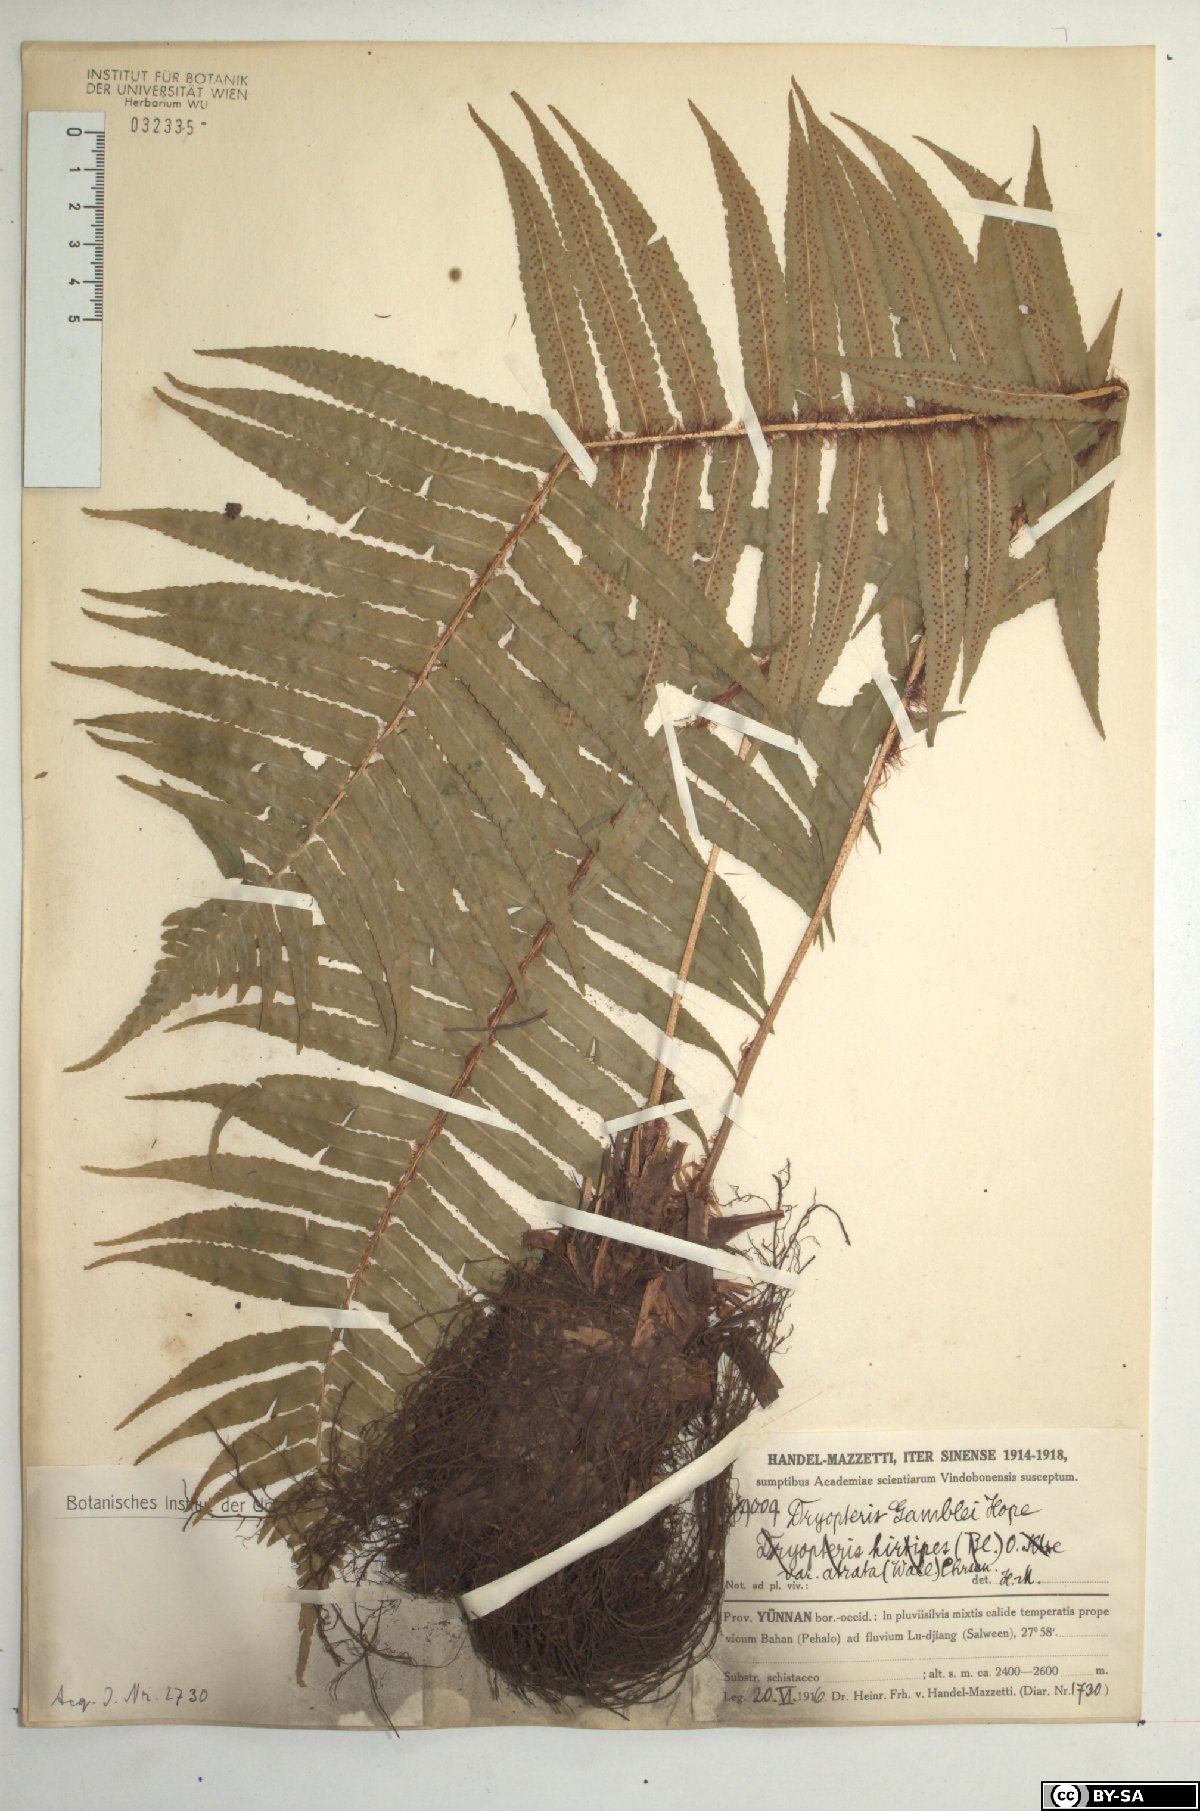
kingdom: Plantae
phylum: Tracheophyta
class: Polypodiopsida
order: Polypodiales
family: Dryopteridaceae
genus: Dryopteris
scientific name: Dryopteris stenolepis
